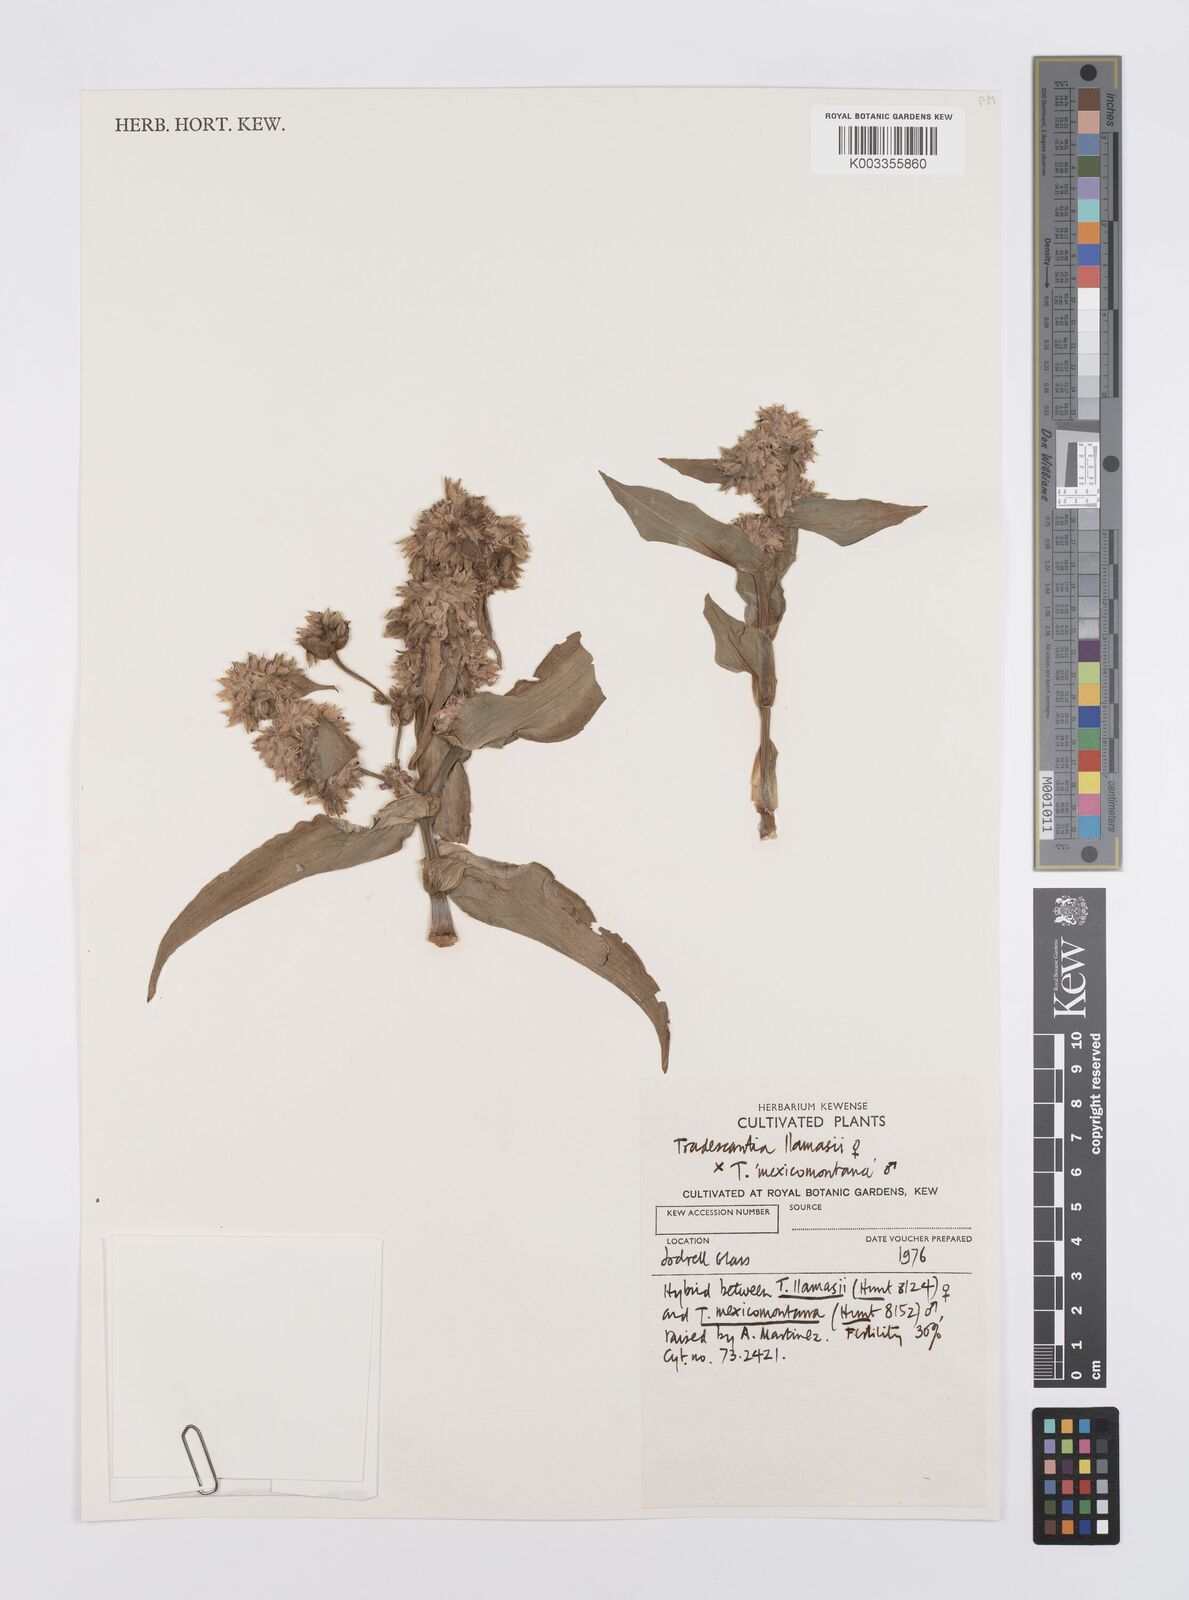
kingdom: Plantae
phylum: Tracheophyta
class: Liliopsida
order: Commelinales
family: Commelinaceae
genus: Tradescantia
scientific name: Tradescantia llamasii
